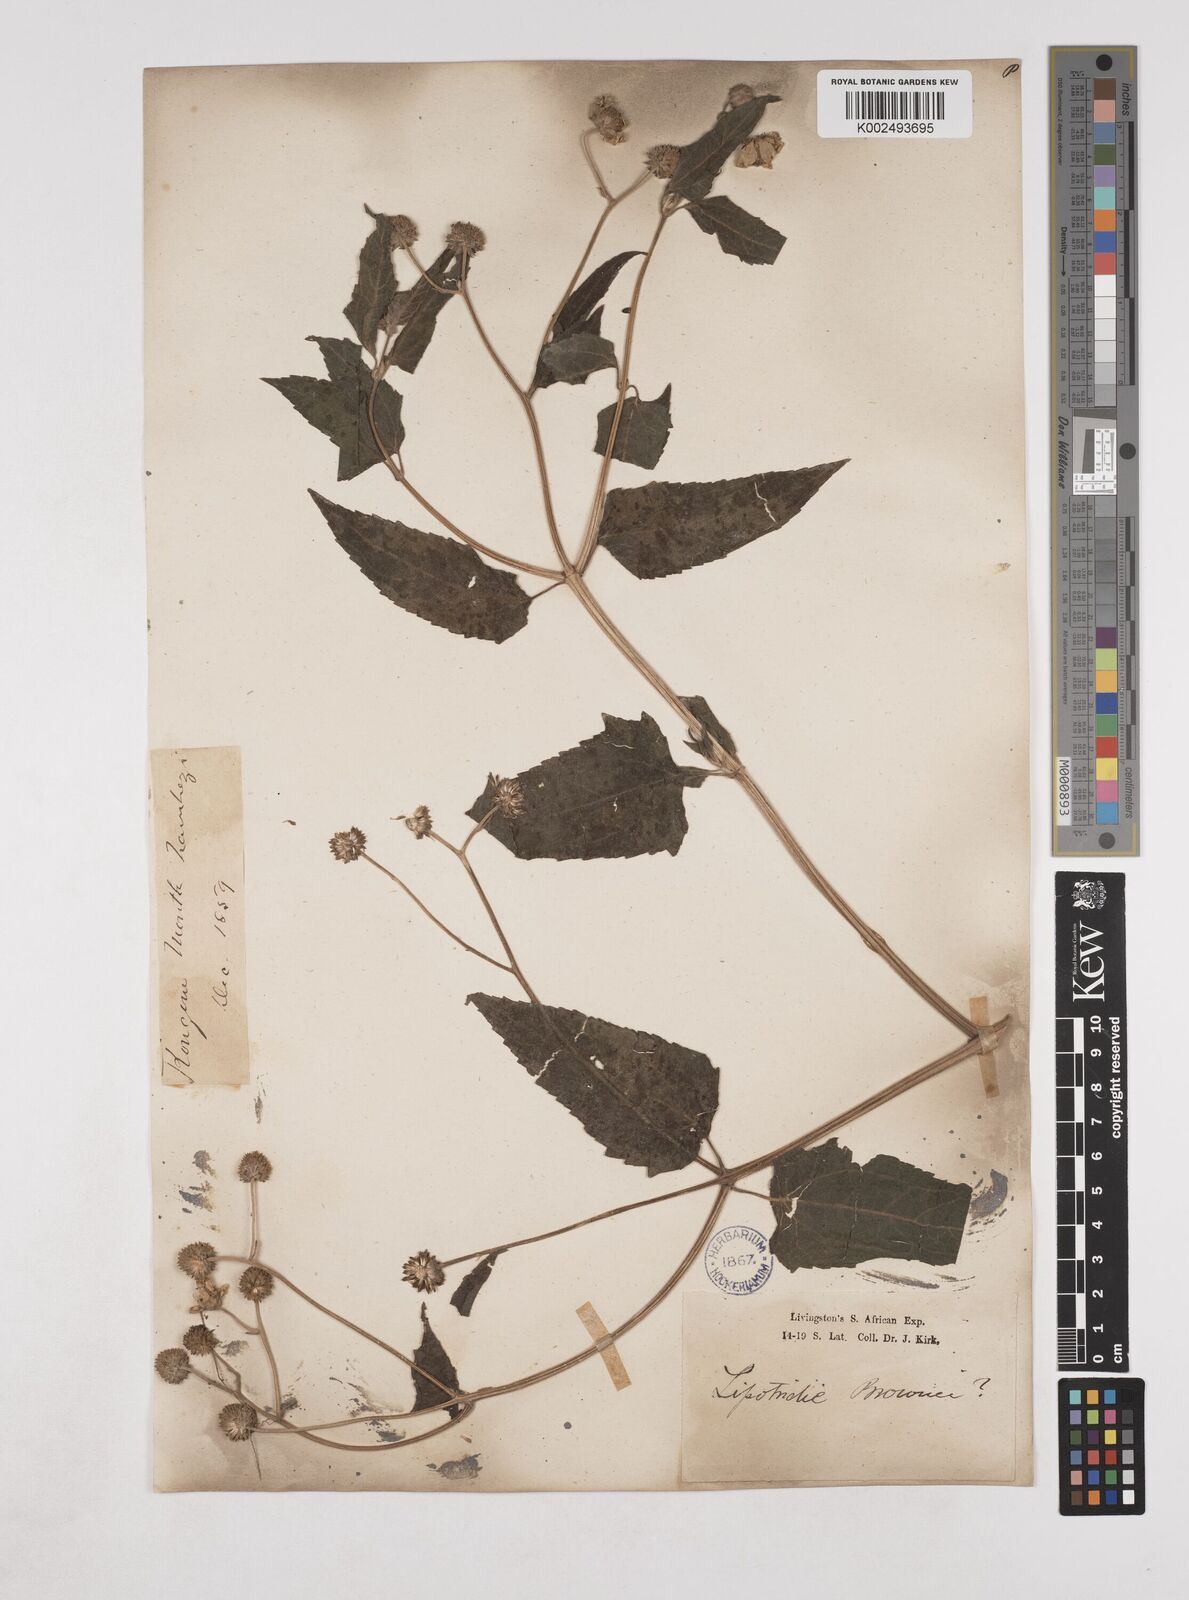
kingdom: Plantae
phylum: Tracheophyta
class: Magnoliopsida
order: Asterales
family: Asteraceae
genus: Lipotriche
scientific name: Lipotriche scandens
